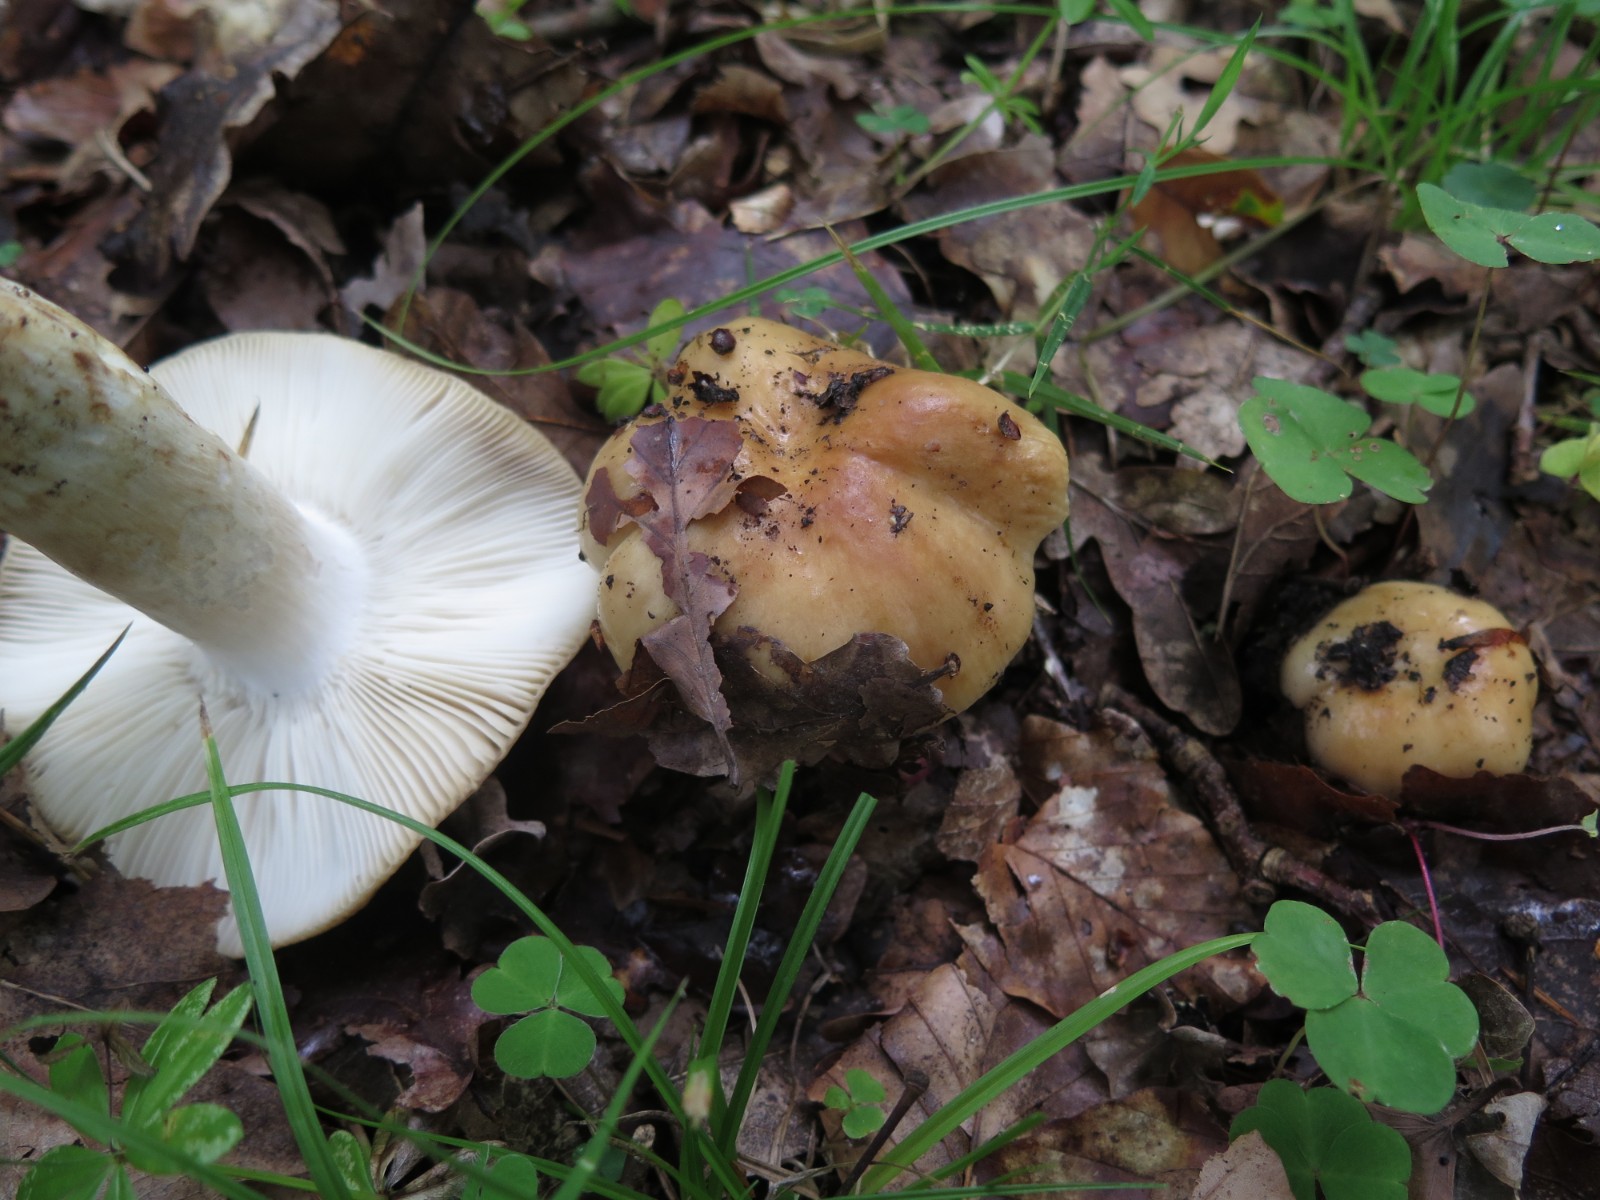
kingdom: Fungi
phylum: Basidiomycota
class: Agaricomycetes
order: Russulales
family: Russulaceae
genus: Russula
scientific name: Russula grata
